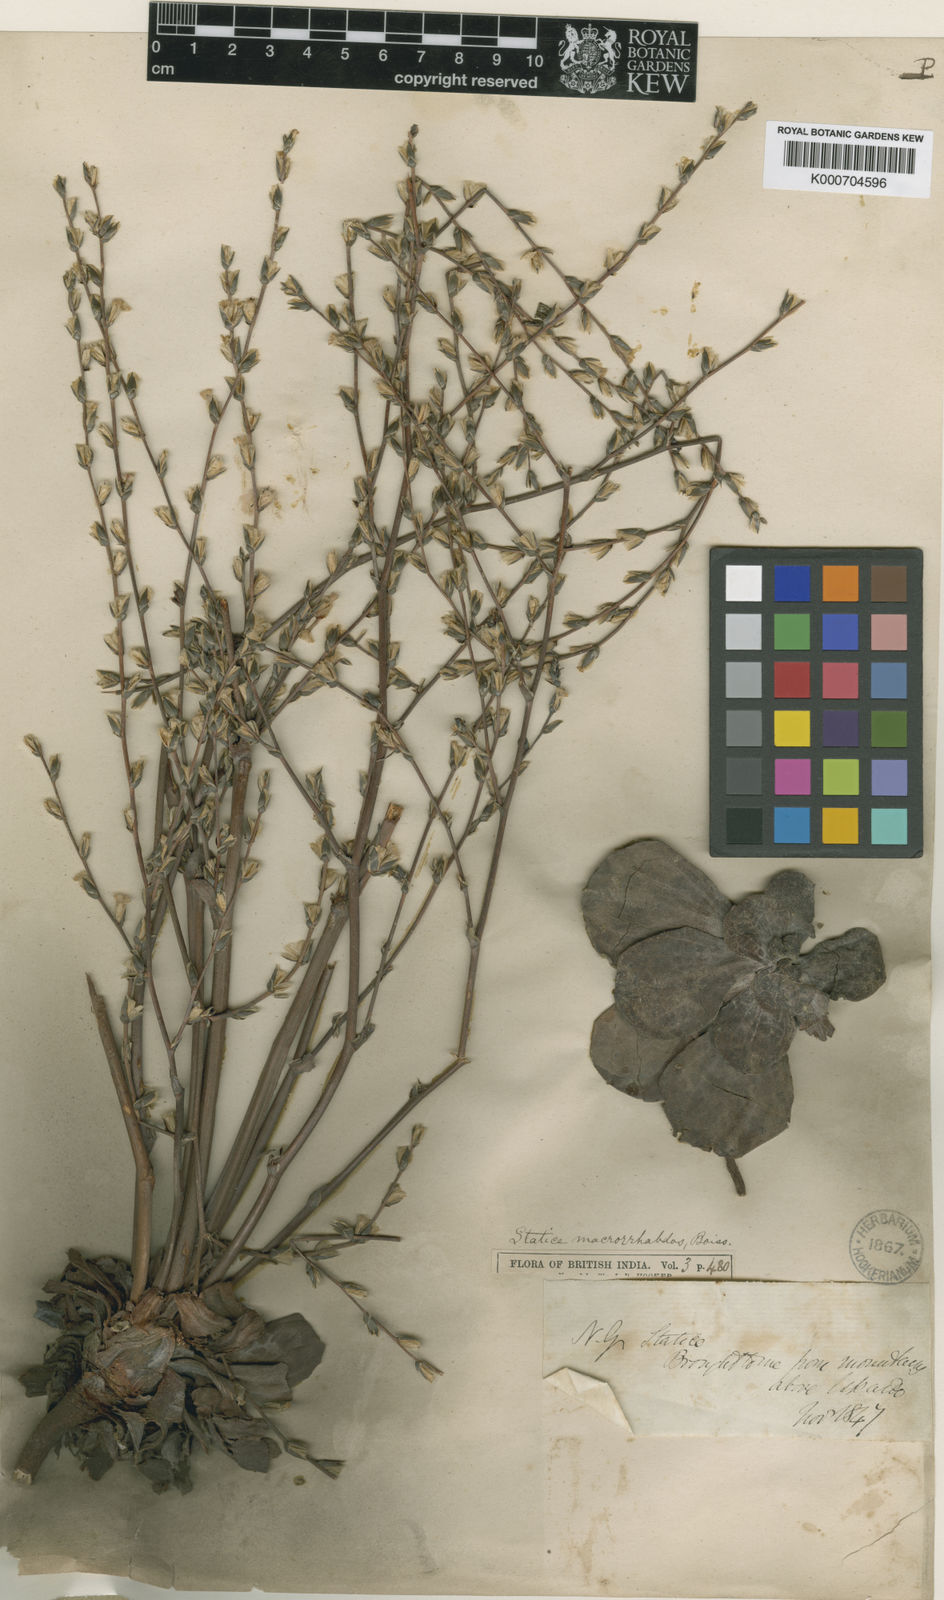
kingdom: Plantae
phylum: Tracheophyta
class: Magnoliopsida
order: Caryophyllales
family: Plumbaginaceae
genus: Dictyolimon
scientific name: Dictyolimon macrorrhabdos
